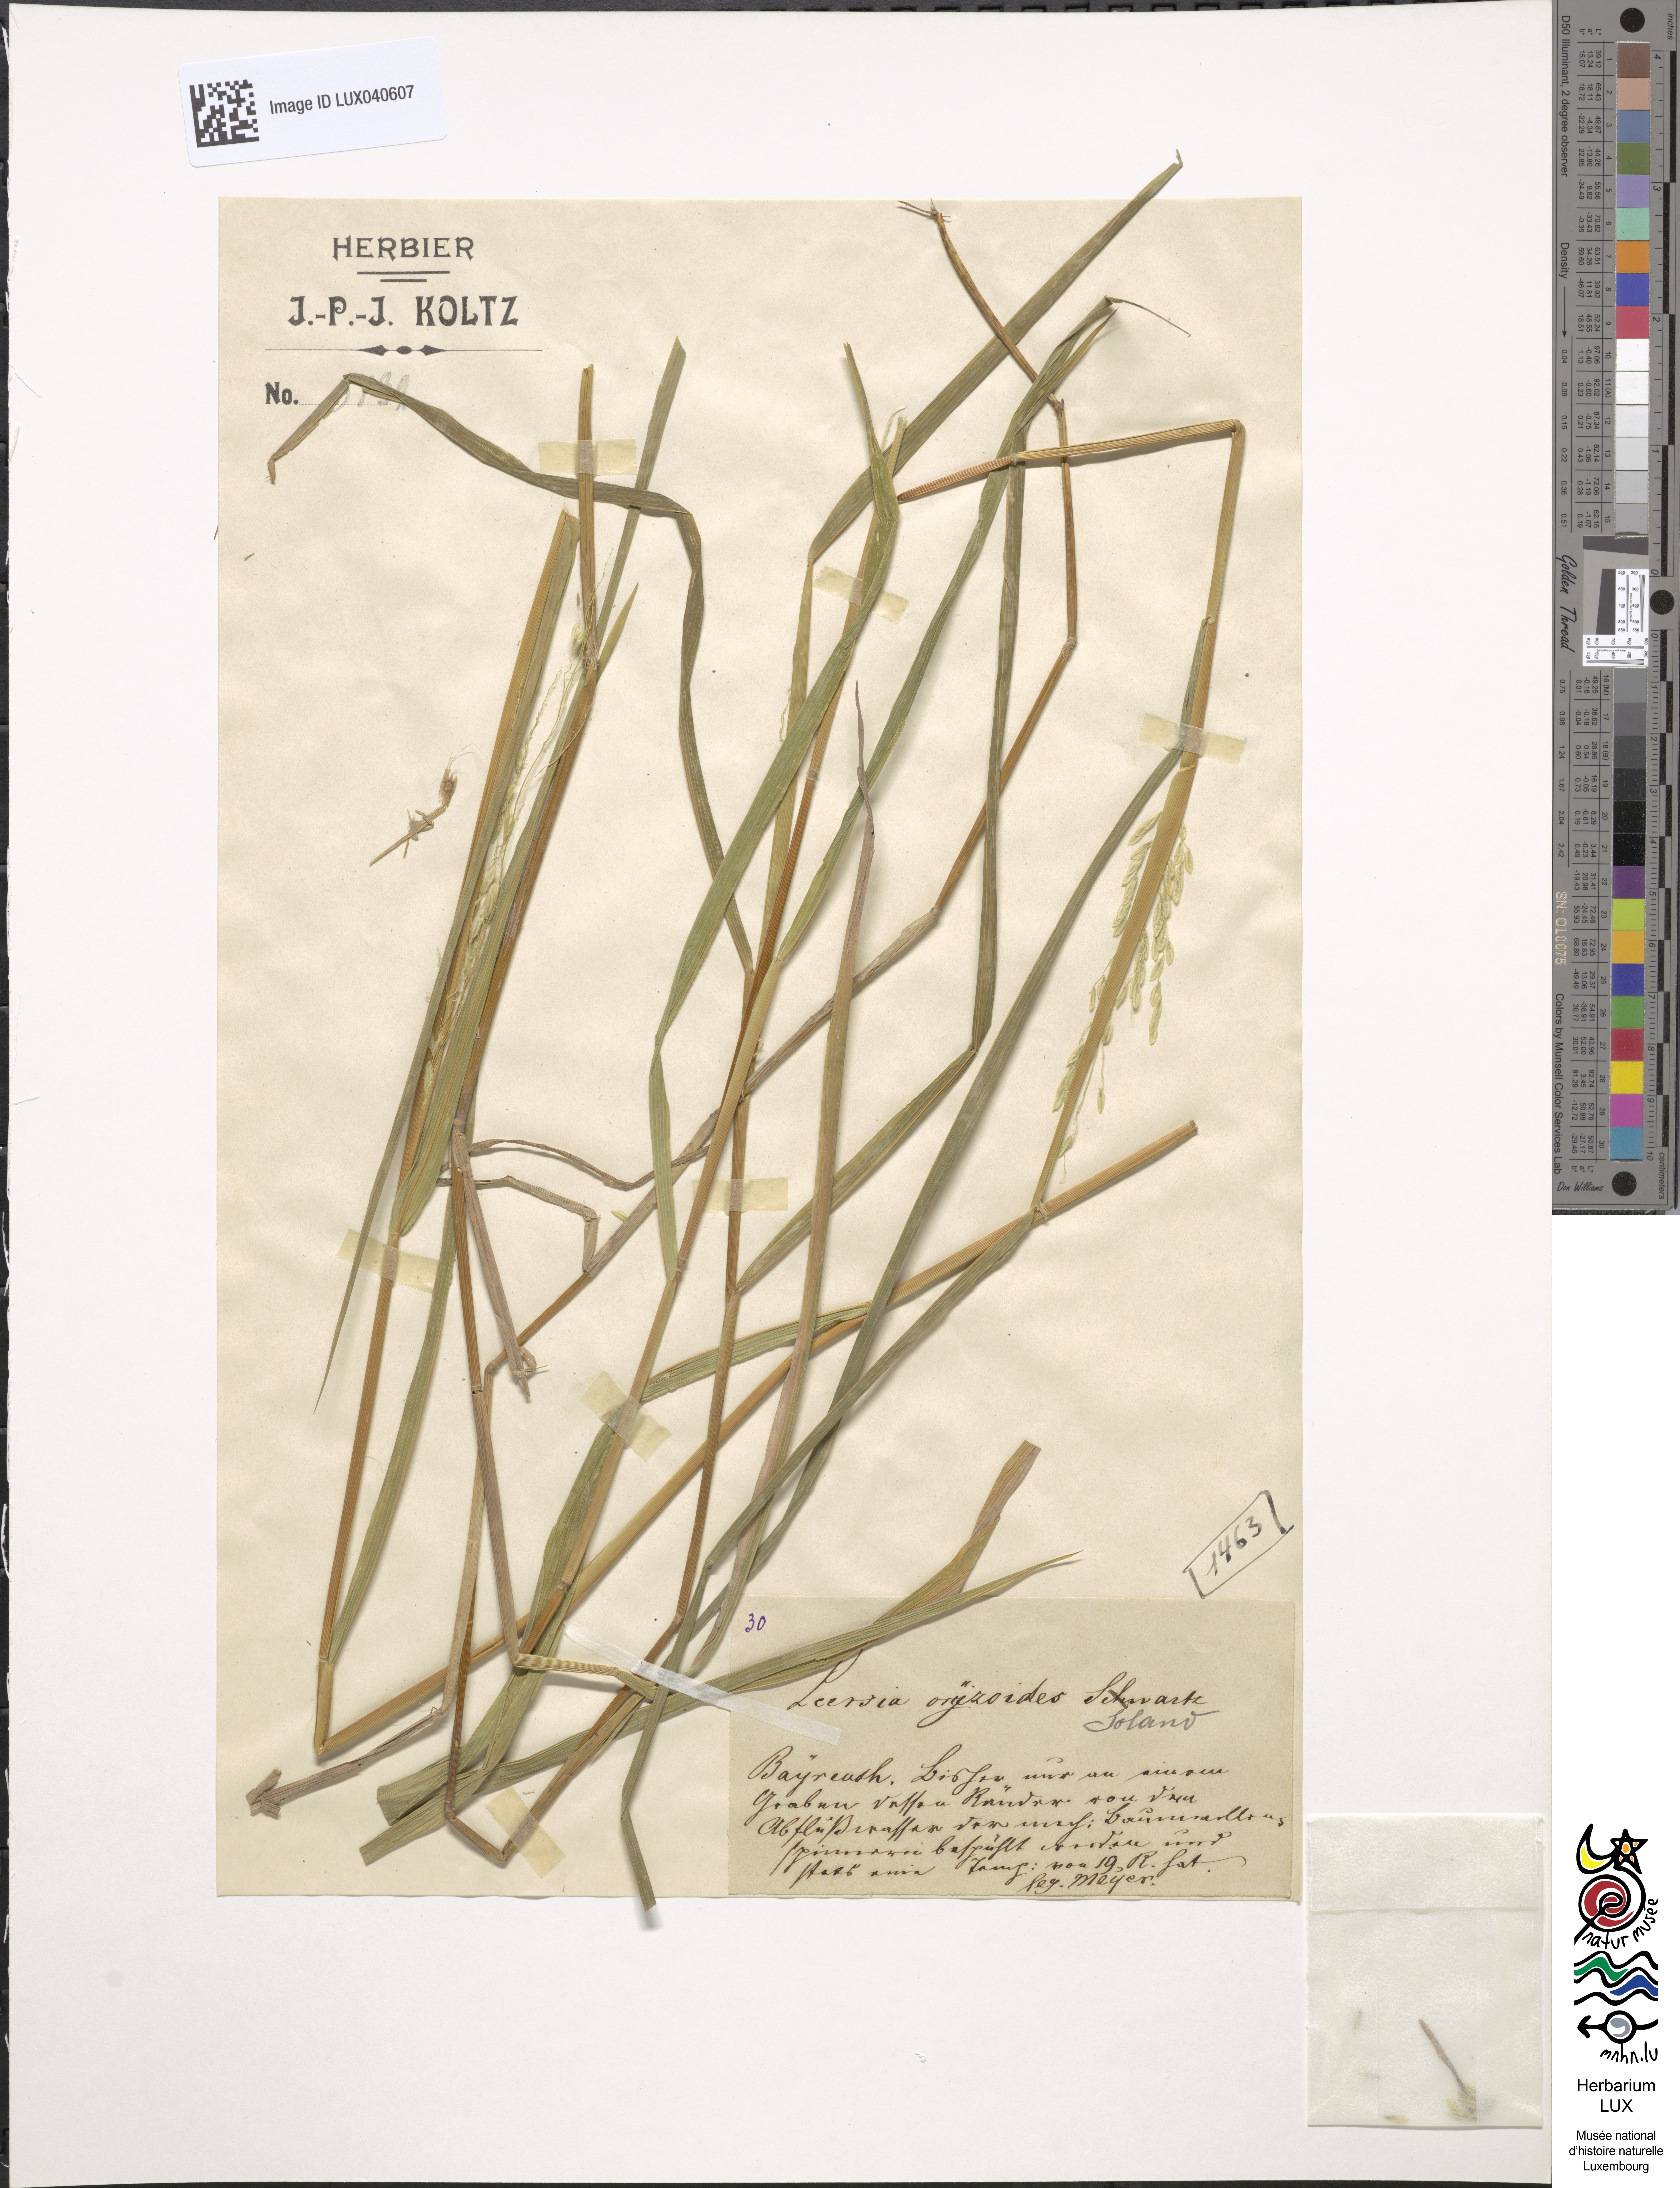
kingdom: Plantae
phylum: Tracheophyta
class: Liliopsida
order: Poales
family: Poaceae
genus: Leersia
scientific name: Leersia oryzoides
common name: Cut-grass
